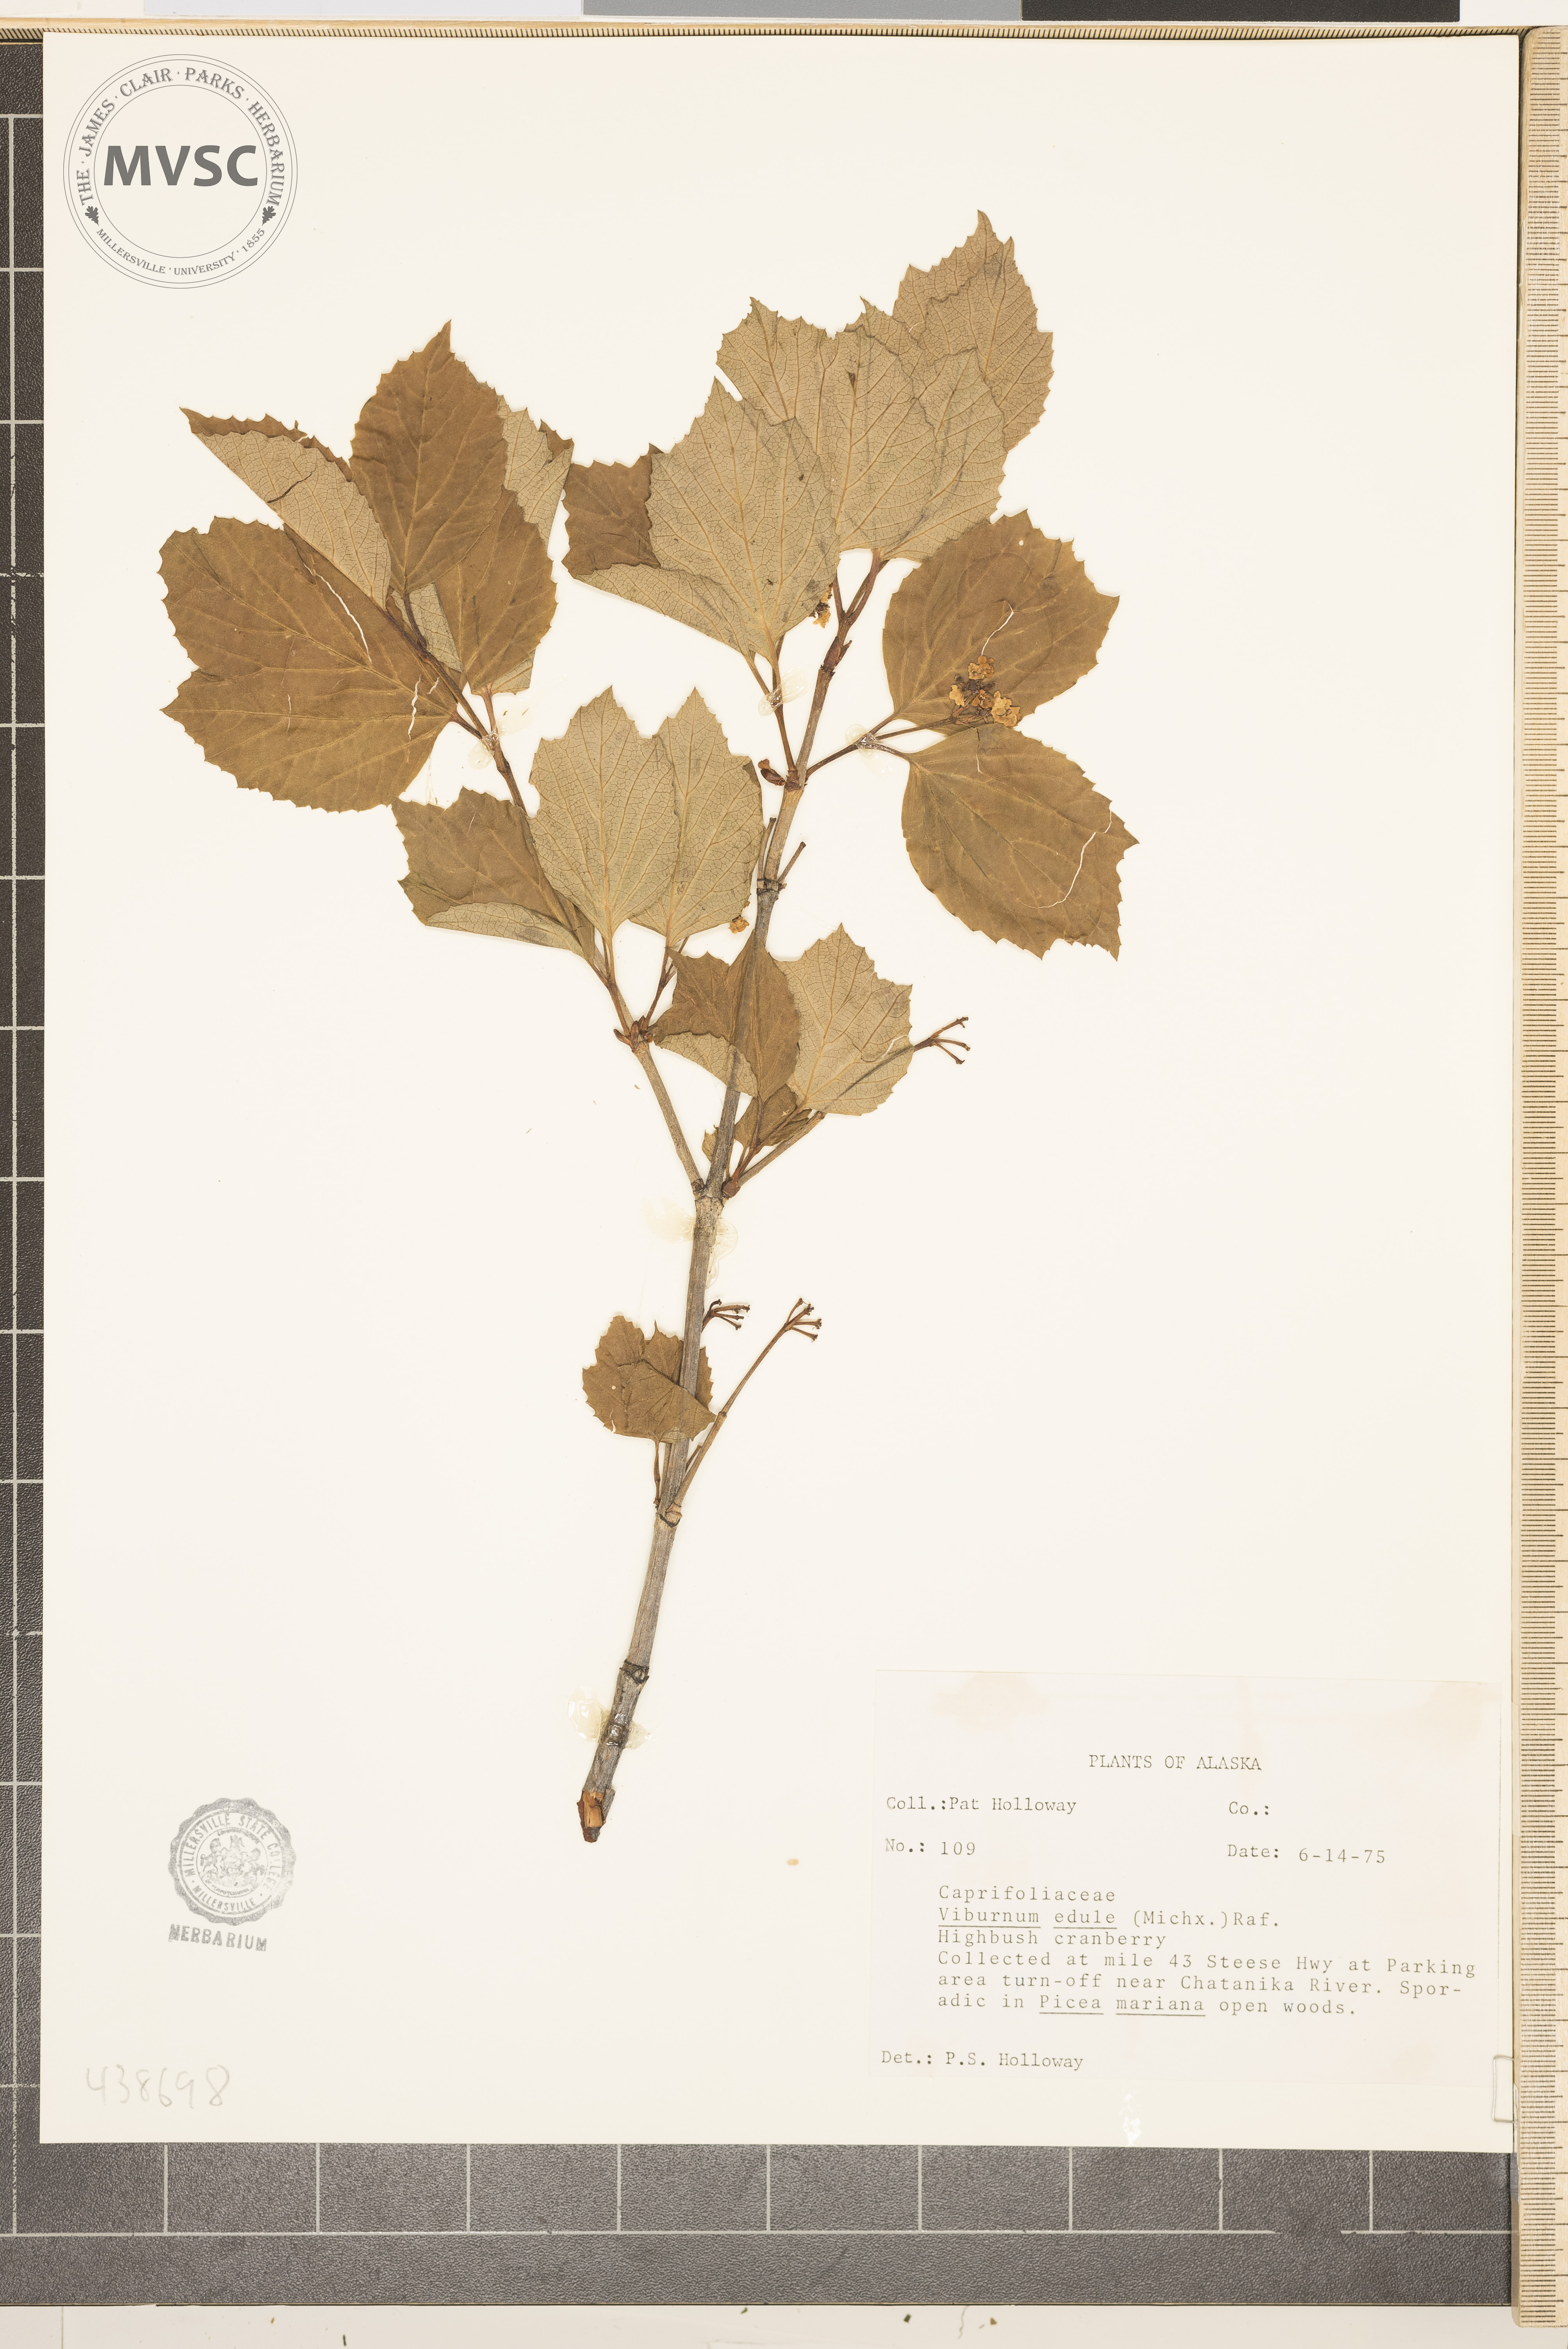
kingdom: Plantae
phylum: Tracheophyta
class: Magnoliopsida
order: Dipsacales
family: Viburnaceae
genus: Viburnum
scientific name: Viburnum edule
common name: Mooseberry
